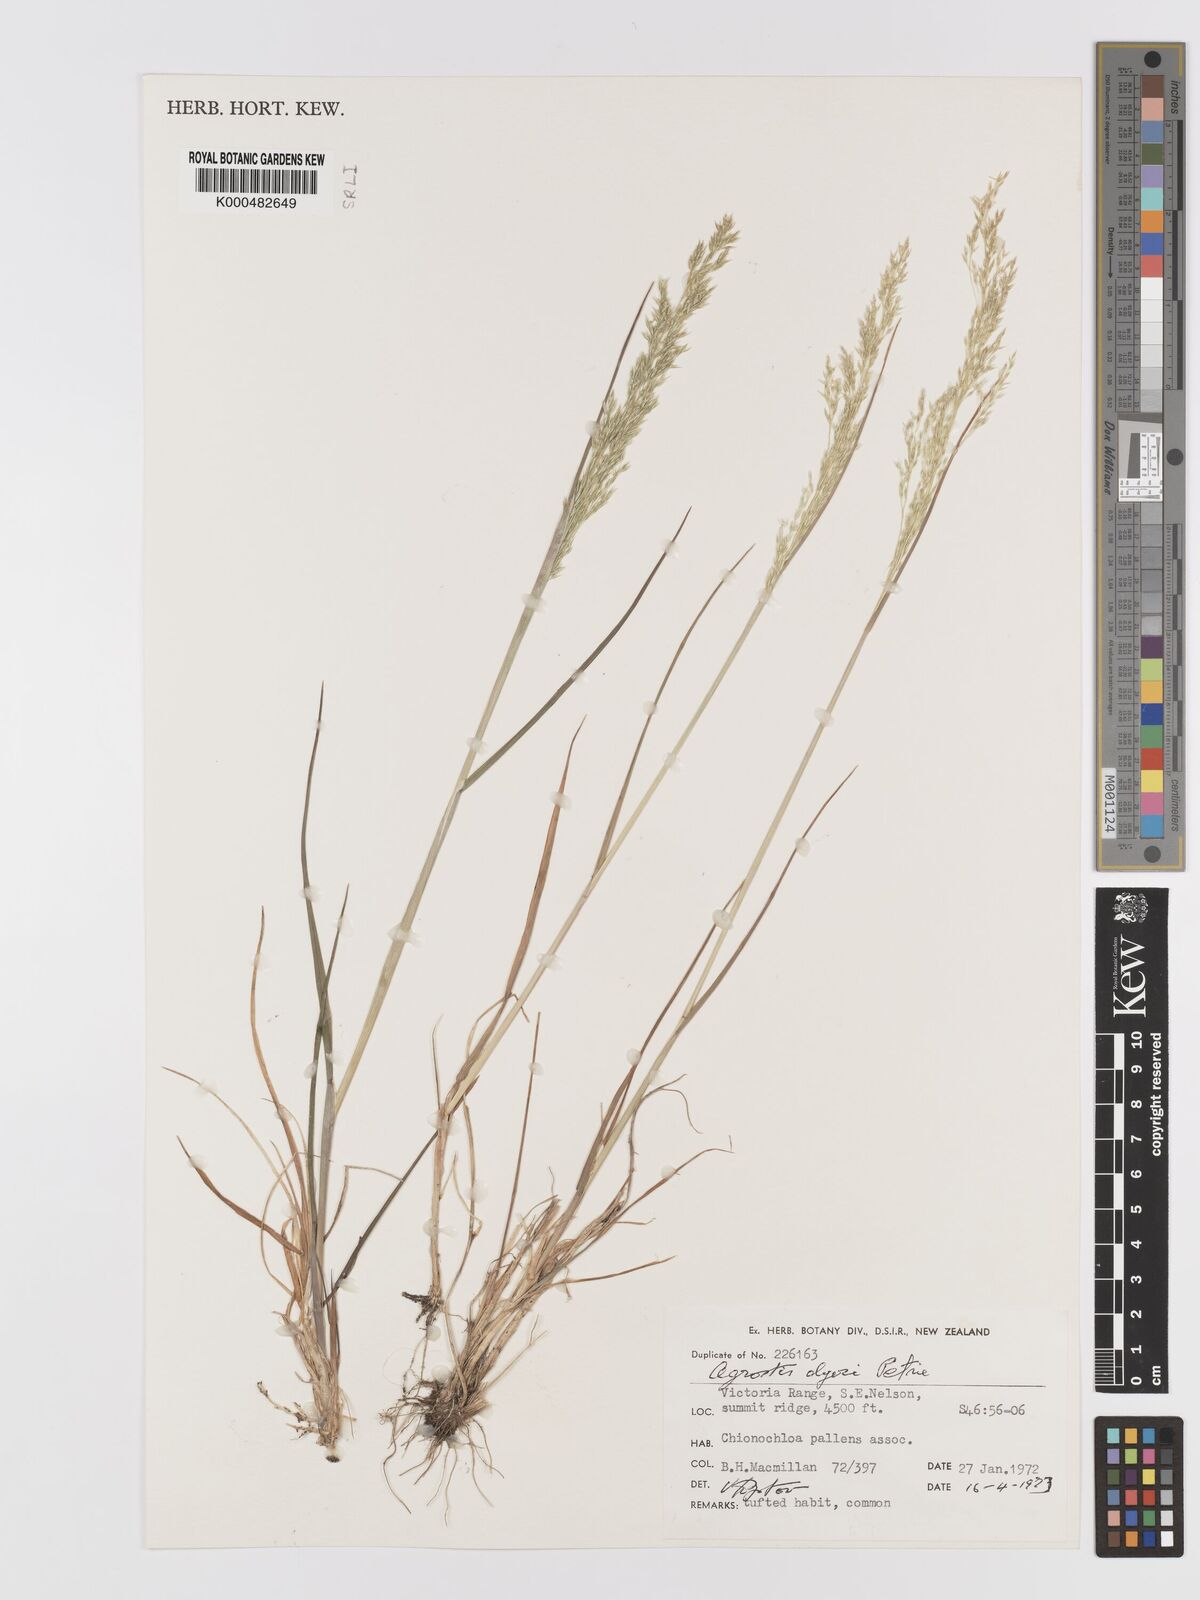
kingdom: Plantae
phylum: Tracheophyta
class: Liliopsida
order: Poales
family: Poaceae
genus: Agrostis
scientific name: Agrostis dyeri
